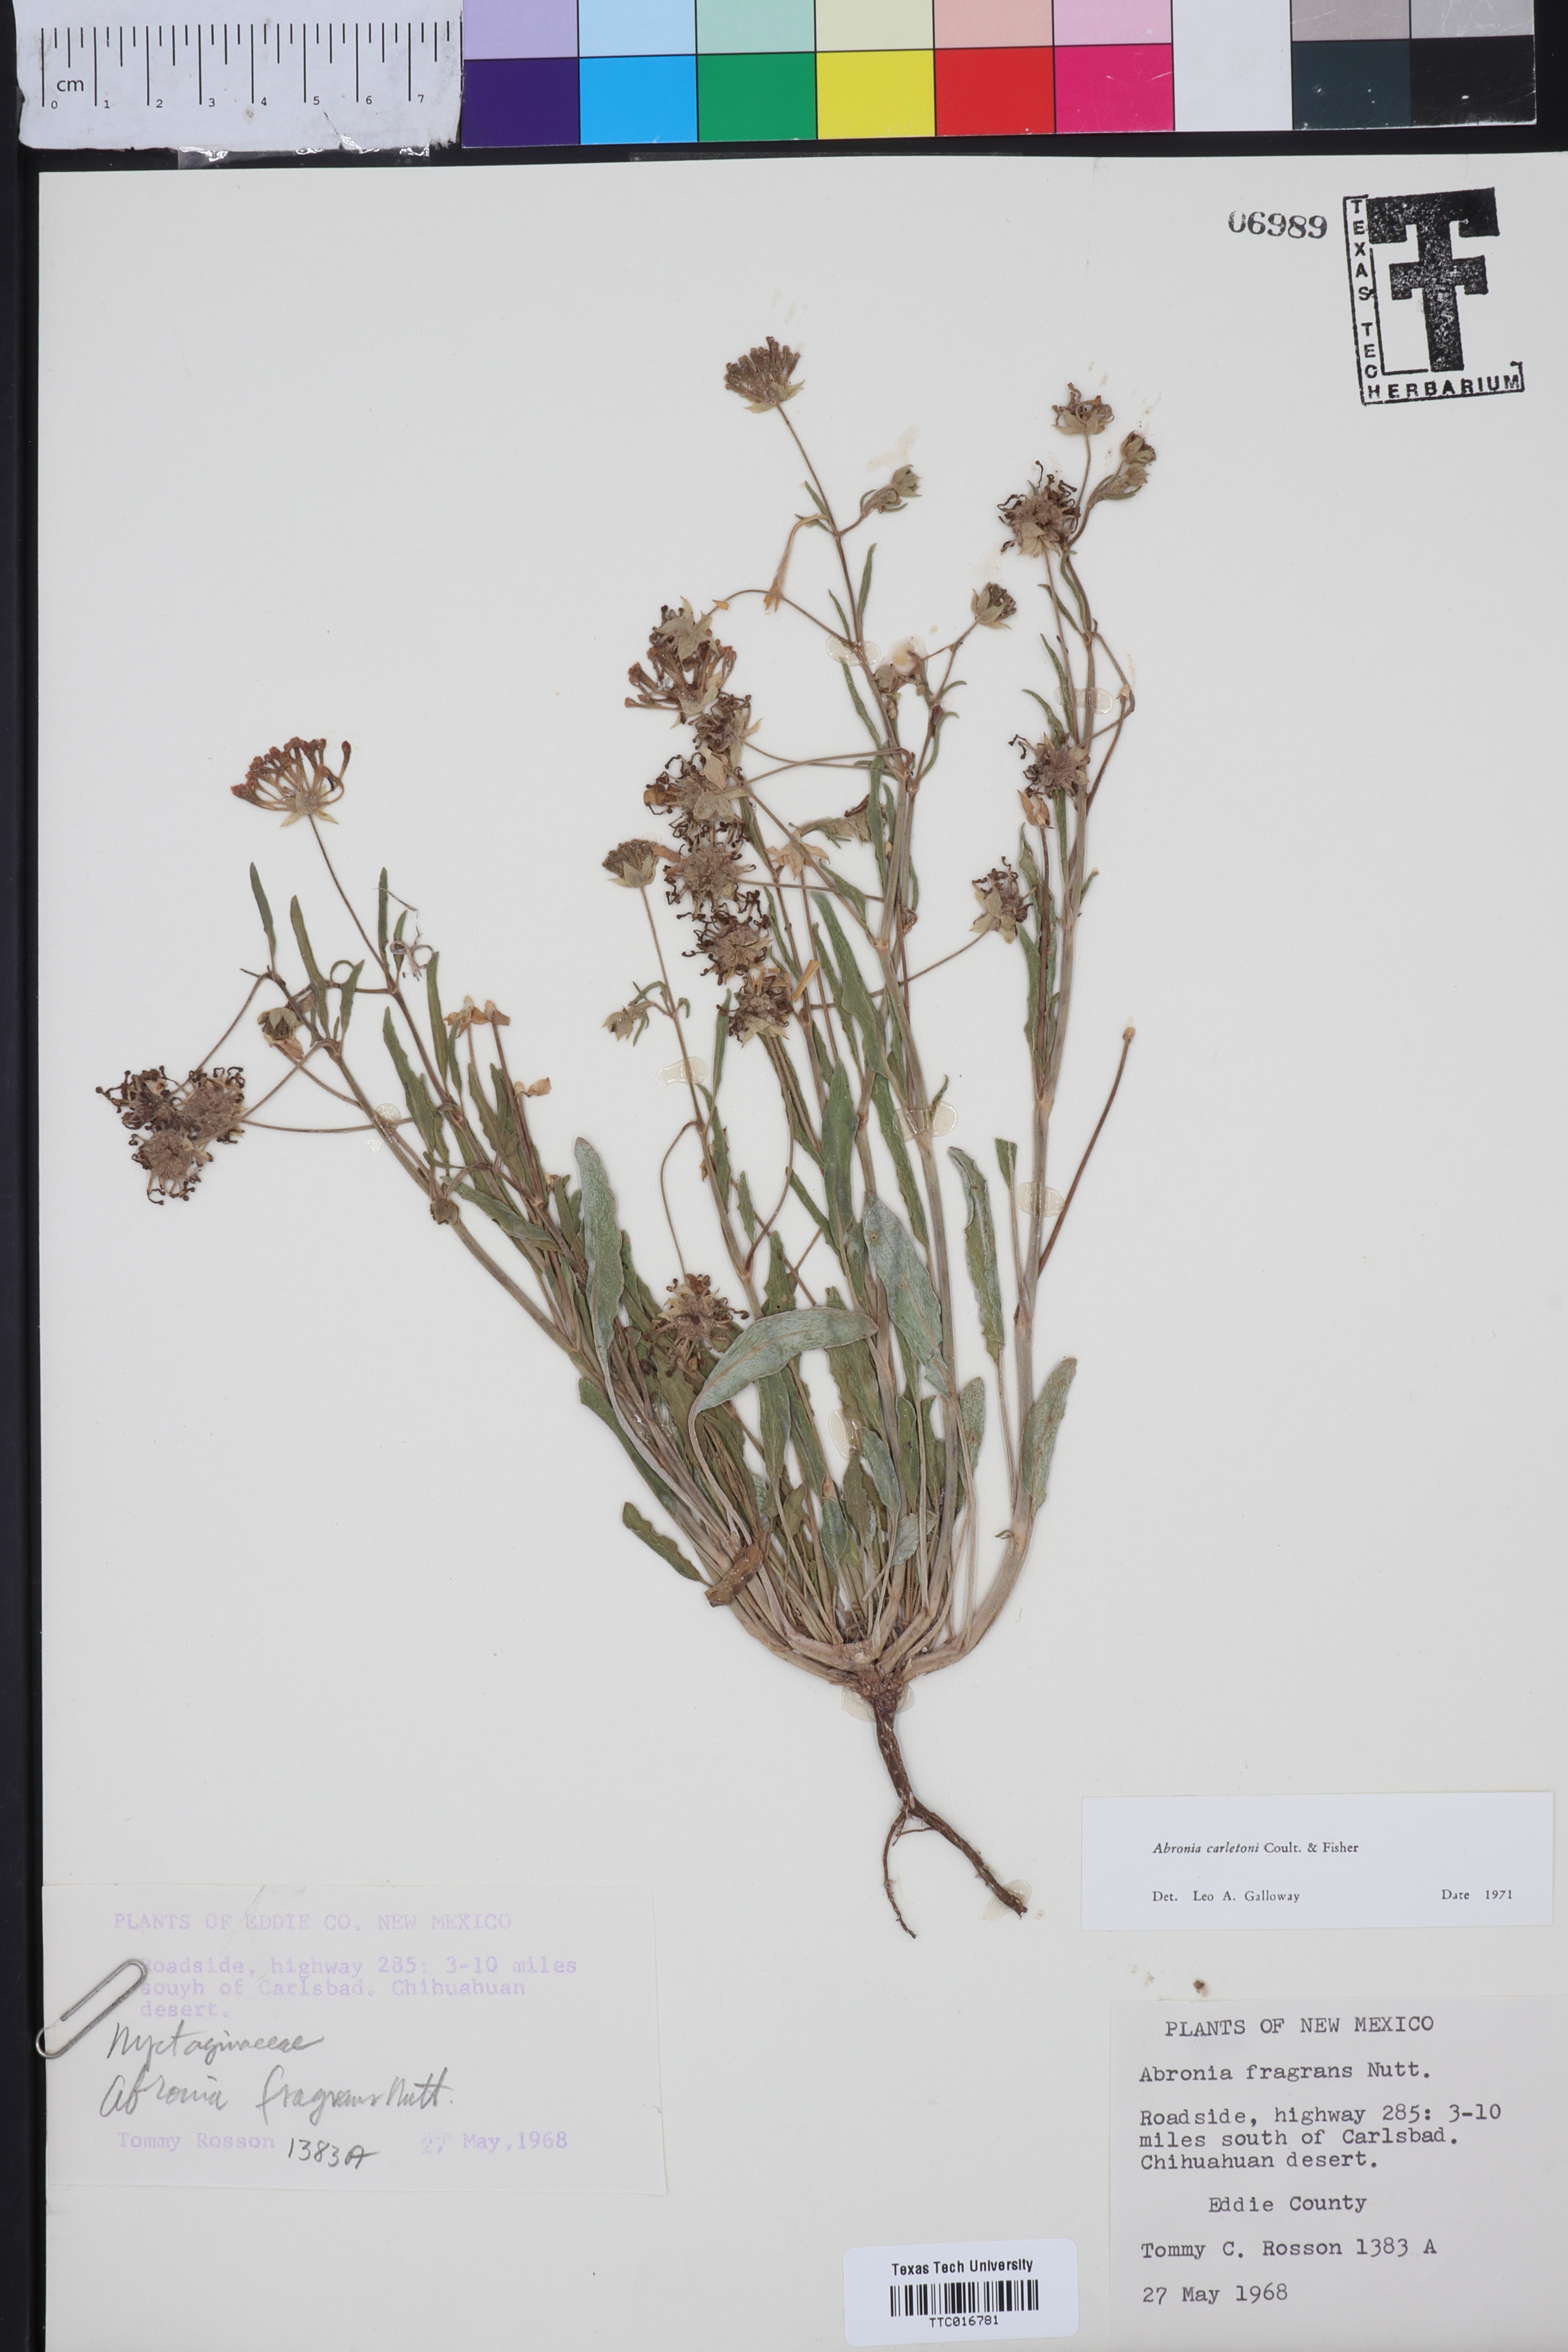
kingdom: Plantae
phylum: Tracheophyta
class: Magnoliopsida
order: Caryophyllales
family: Nyctaginaceae
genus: Abronia
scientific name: Abronia carletonii
